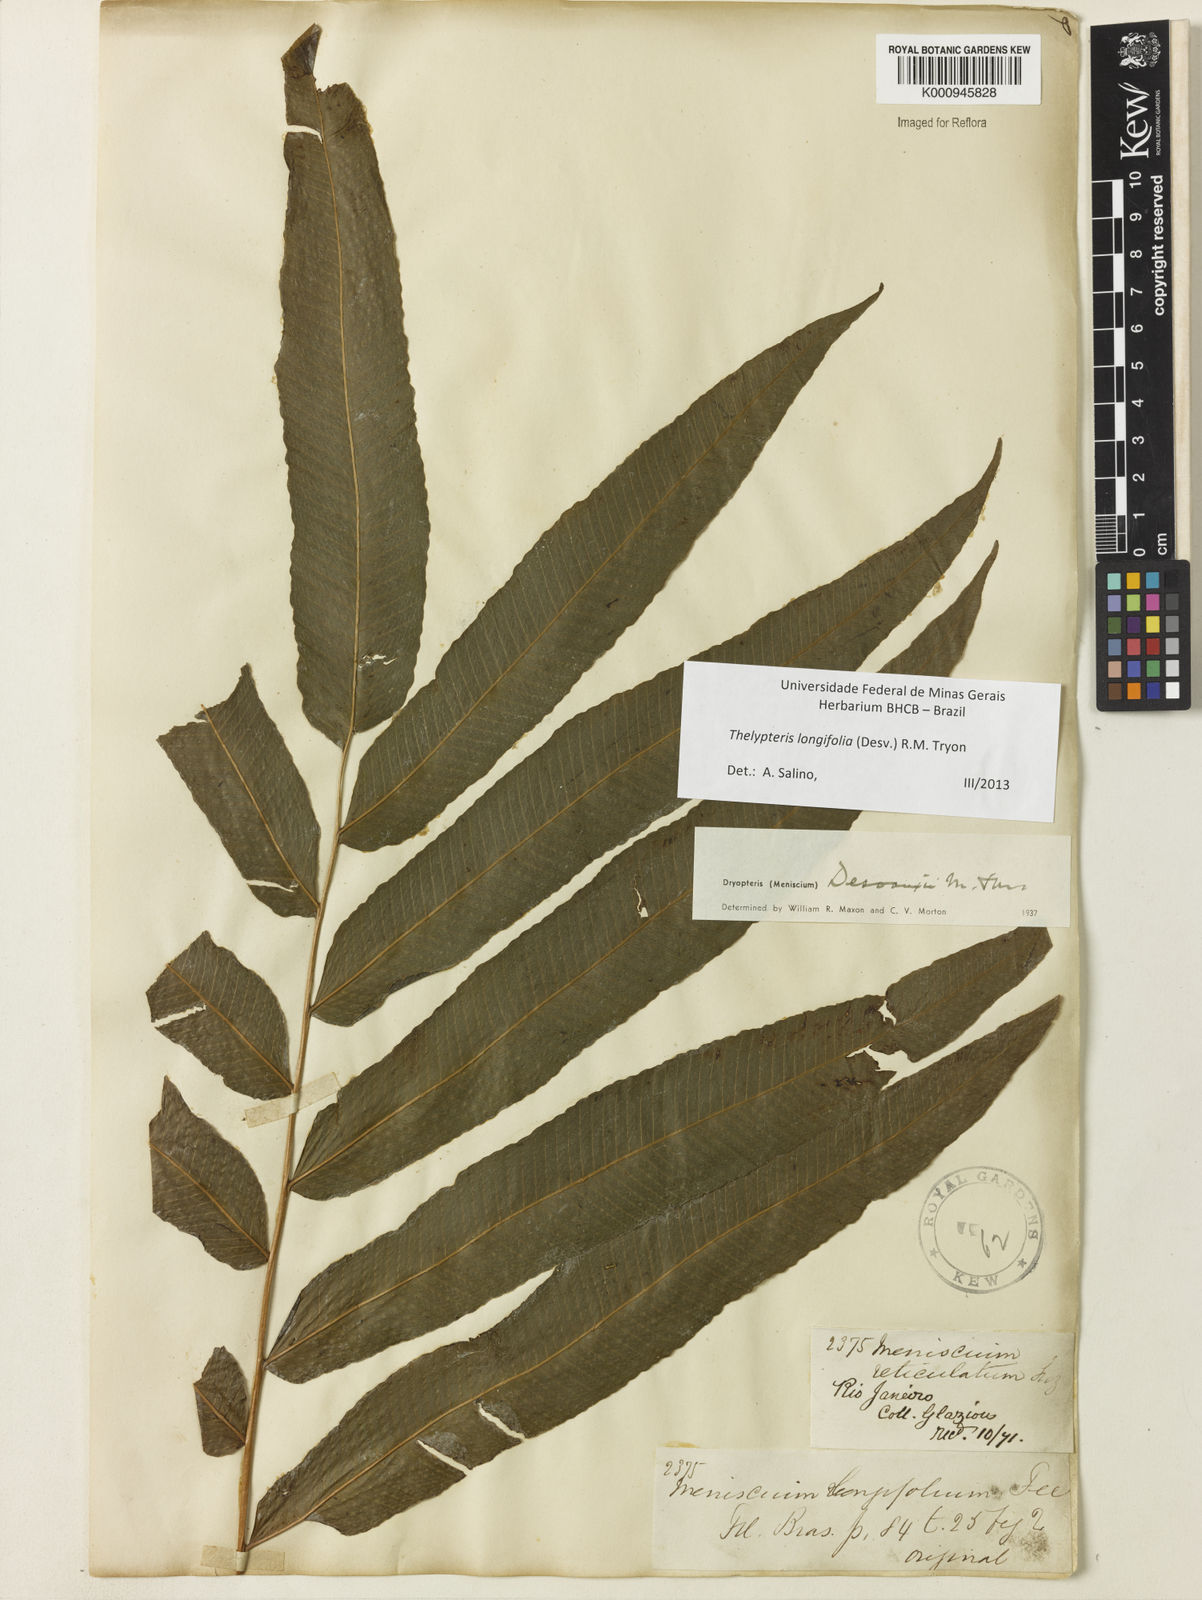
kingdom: Plantae
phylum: Tracheophyta
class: Polypodiopsida
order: Polypodiales
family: Thelypteridaceae
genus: Meniscium
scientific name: Meniscium longifolium
